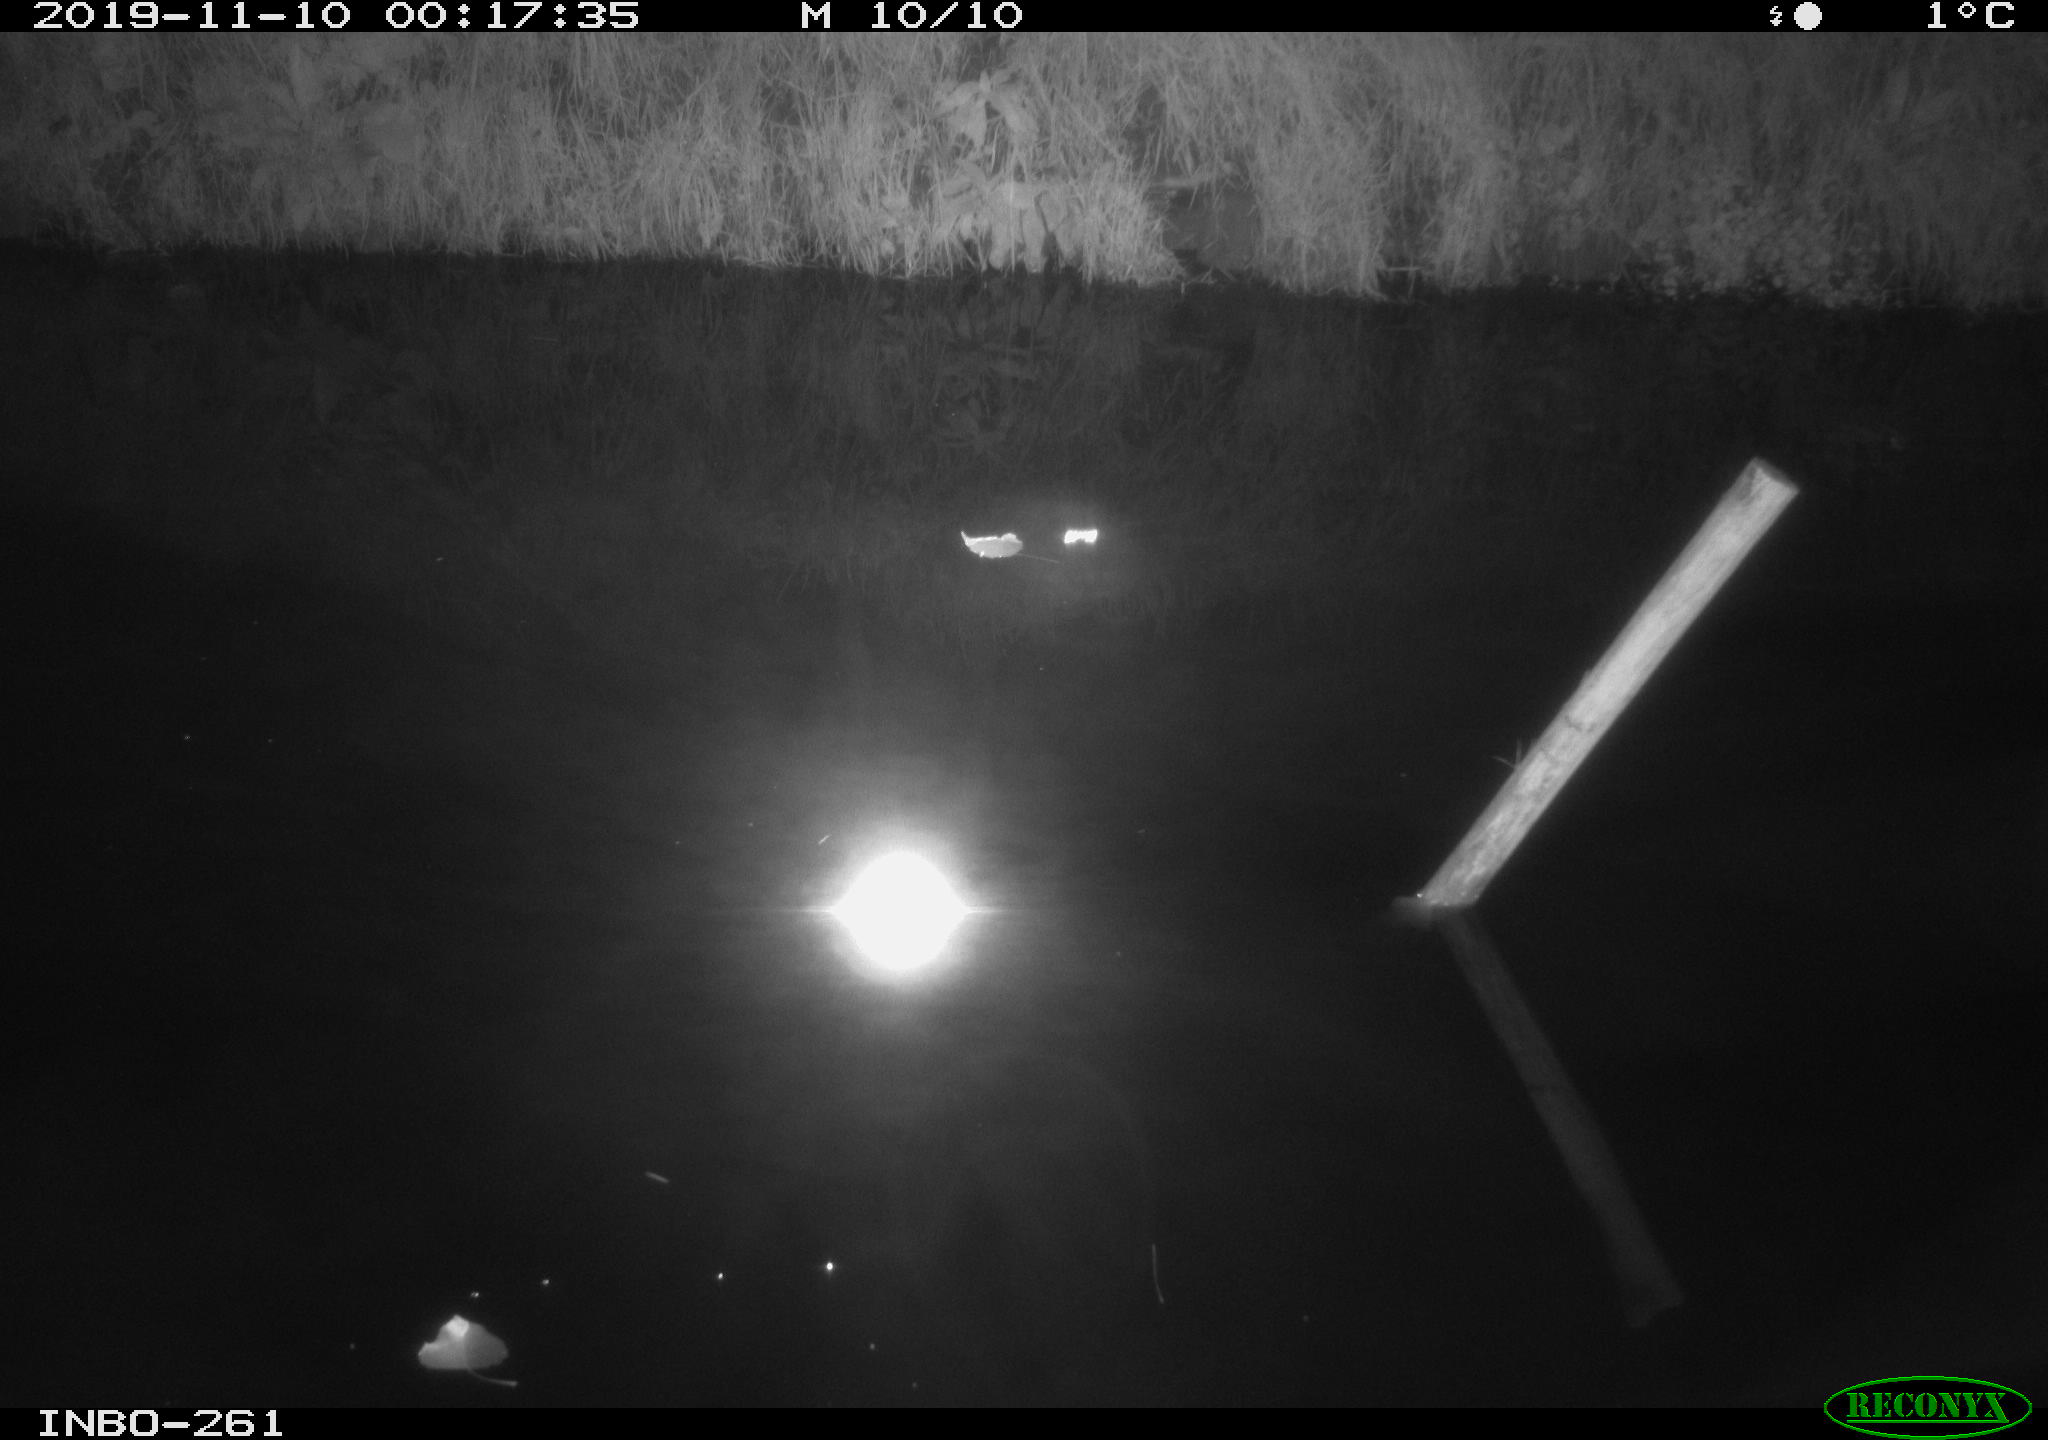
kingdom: Animalia
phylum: Chordata
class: Aves
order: Anseriformes
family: Anatidae
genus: Anas
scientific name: Anas platyrhynchos
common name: Mallard
